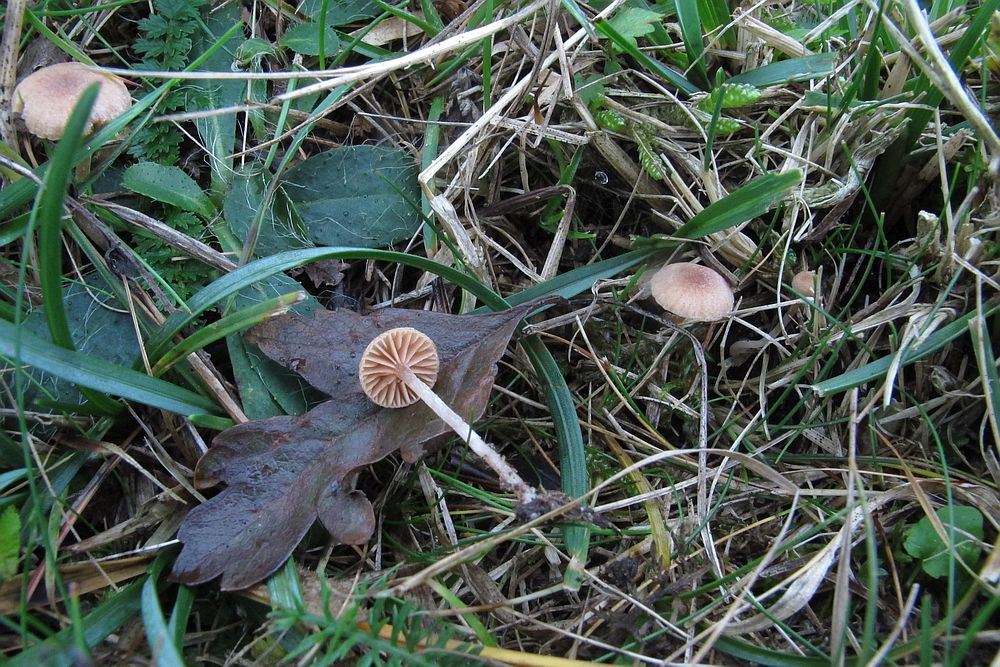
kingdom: Fungi
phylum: Basidiomycota
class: Agaricomycetes
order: Agaricales
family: Tubariaceae
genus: Tubaria
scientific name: Tubaria dispersa
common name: tjørne-fnughat
